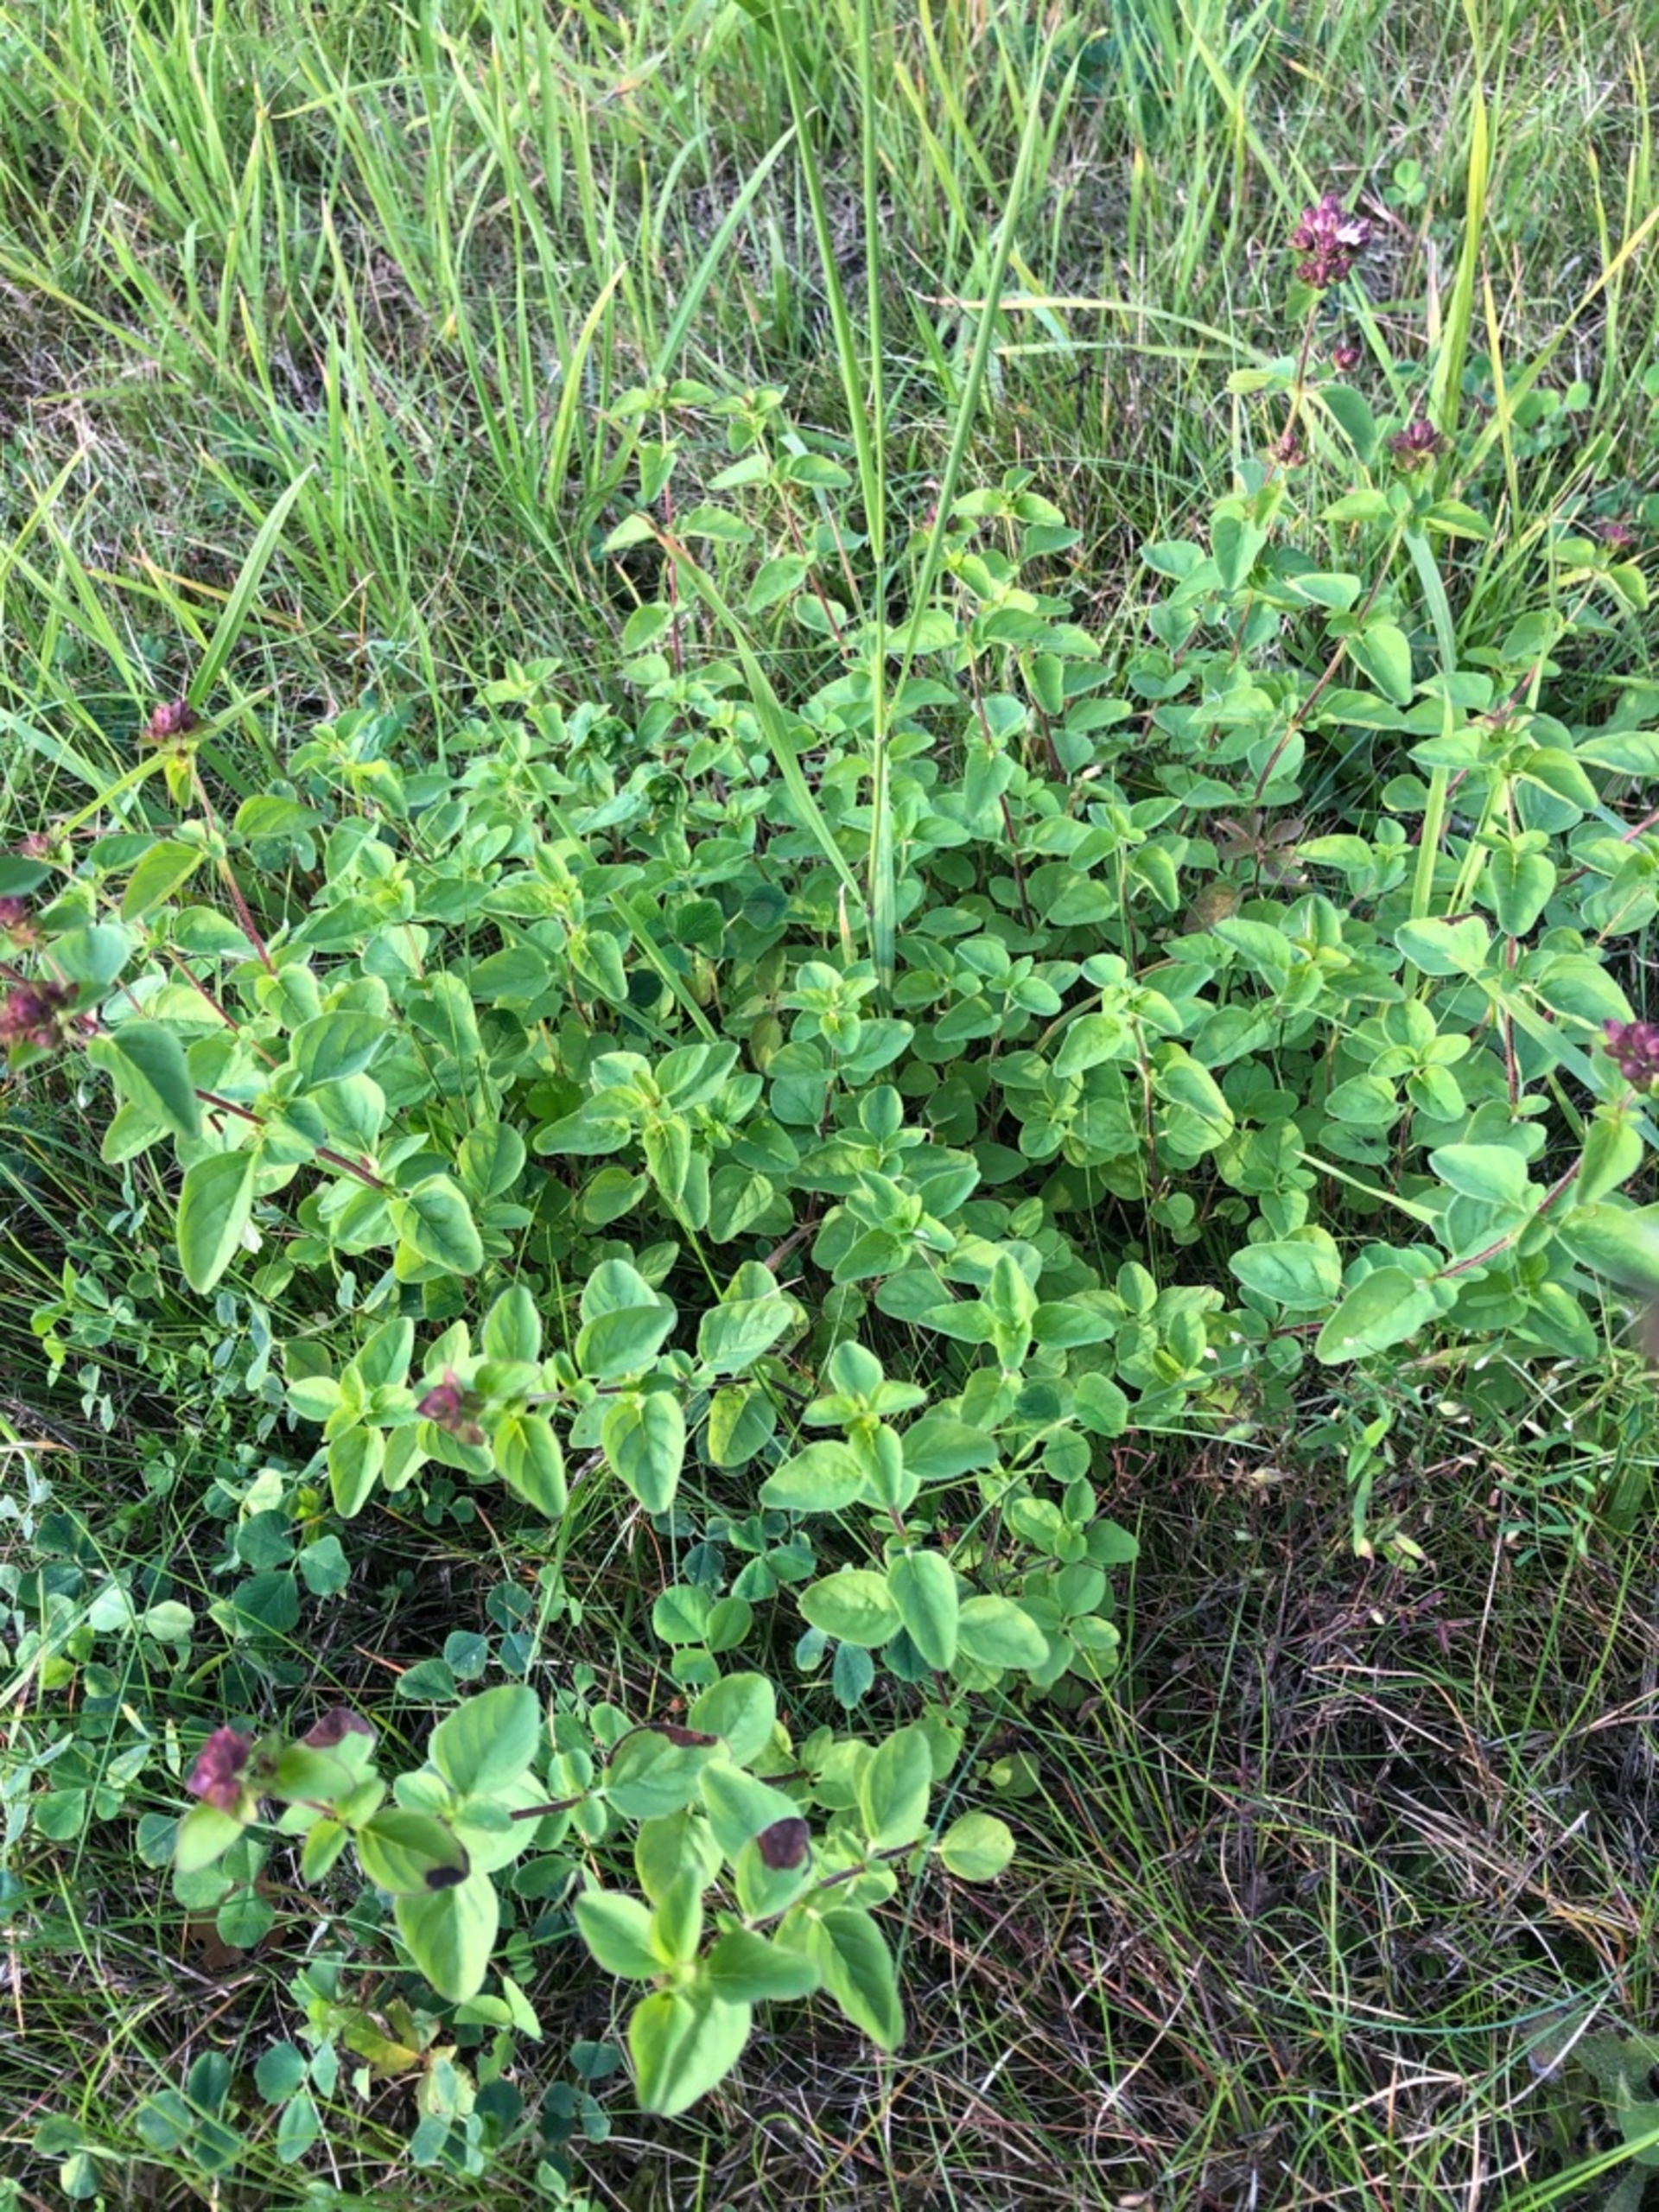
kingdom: Plantae
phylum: Tracheophyta
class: Magnoliopsida
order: Lamiales
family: Lamiaceae
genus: Origanum
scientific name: Origanum vulgare
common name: Merian
